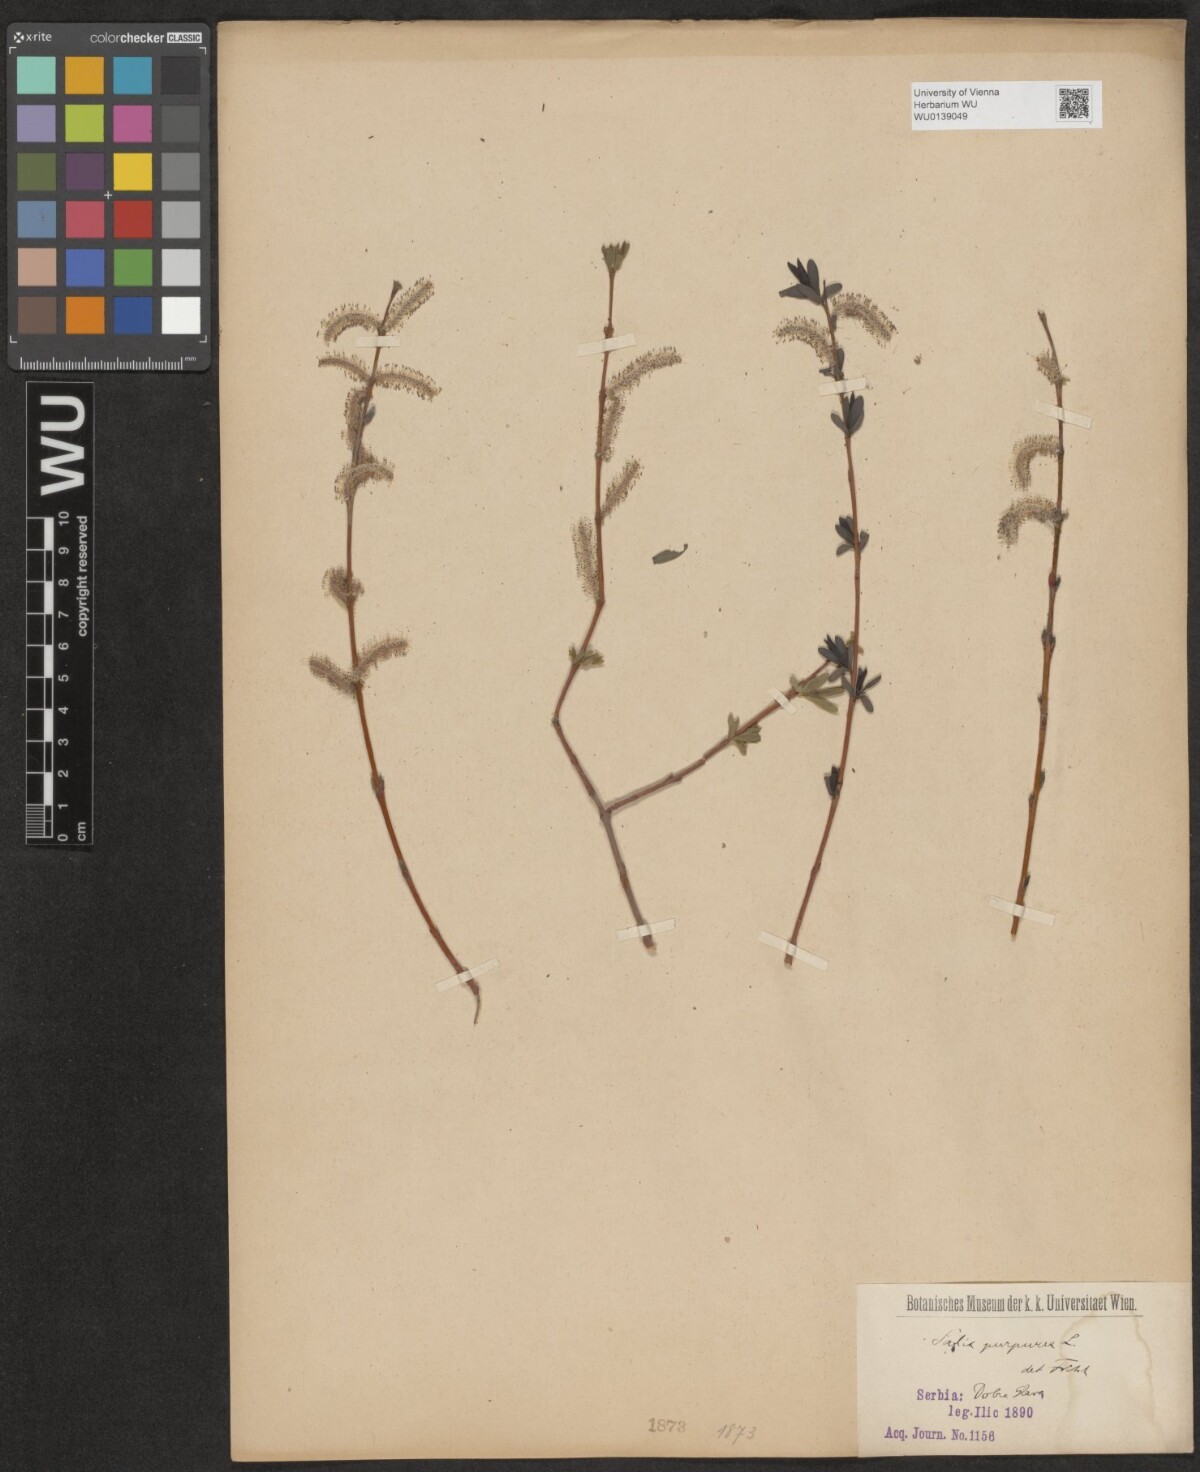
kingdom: Plantae
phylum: Tracheophyta
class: Magnoliopsida
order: Malpighiales
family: Salicaceae
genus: Salix
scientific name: Salix purpurea
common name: Purple willow
